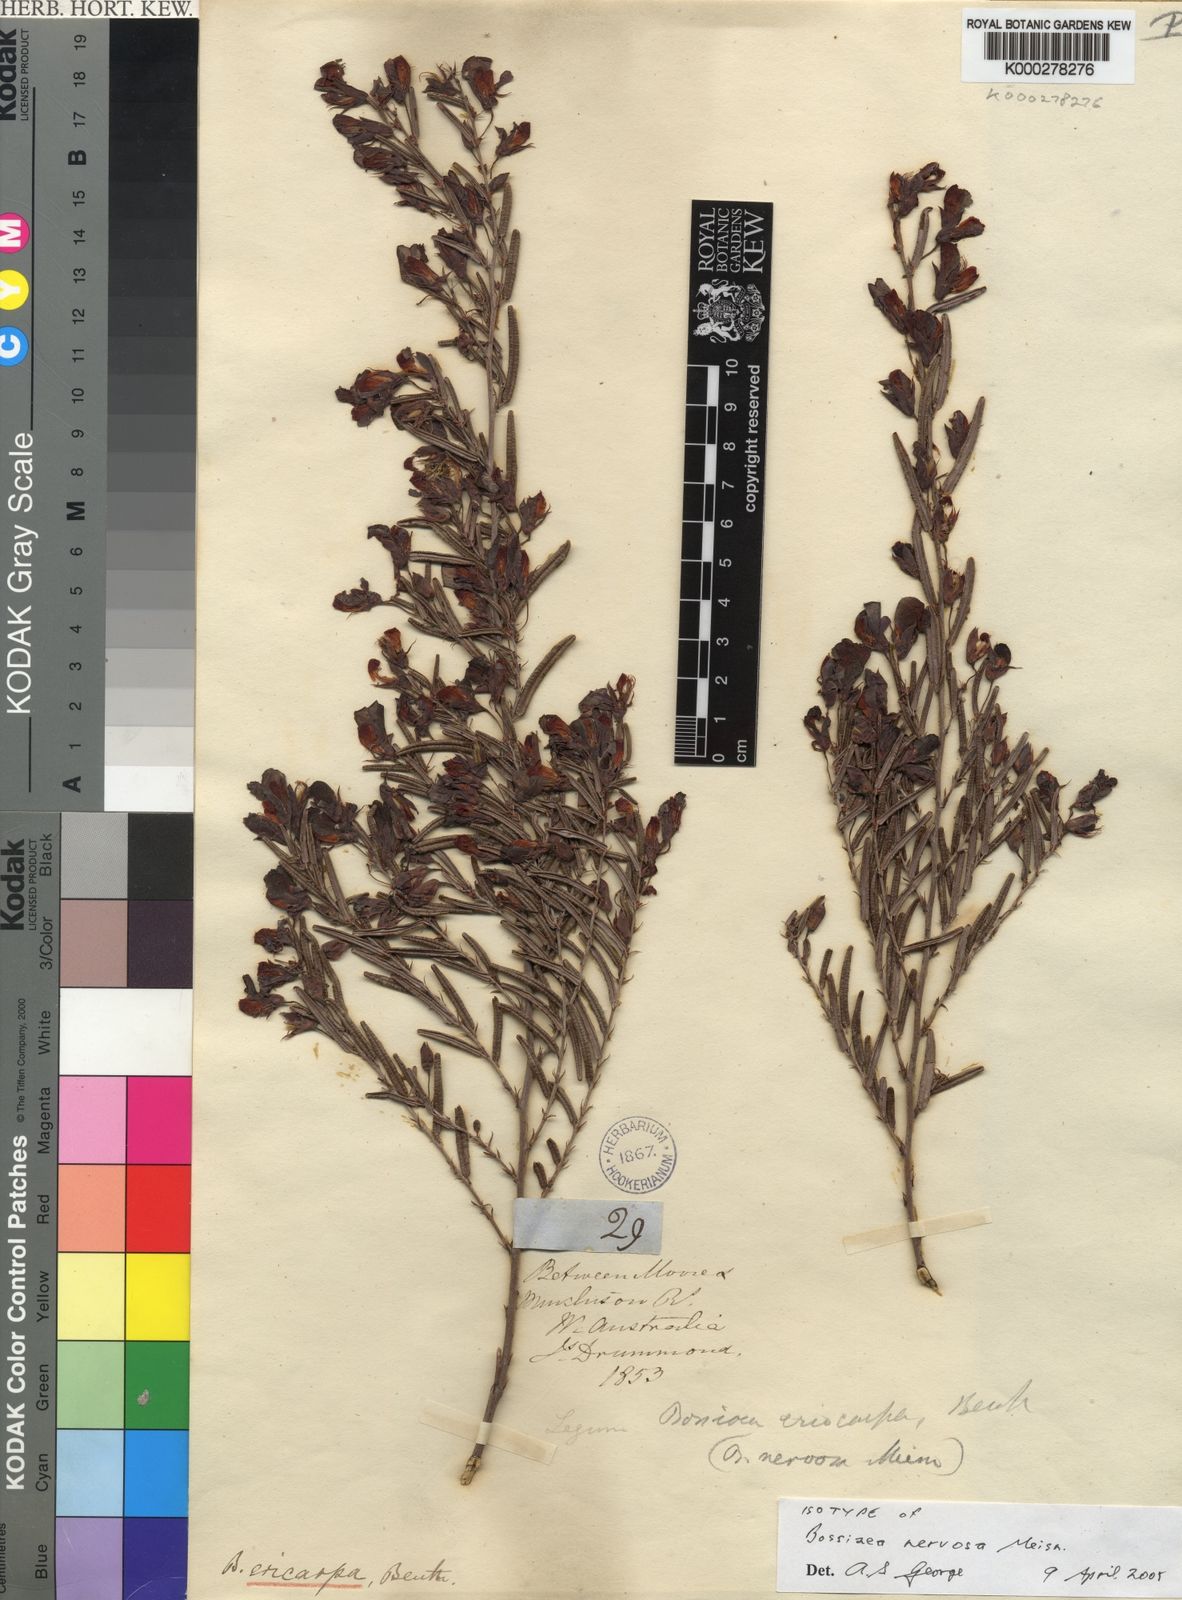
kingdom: Plantae
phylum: Tracheophyta
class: Magnoliopsida
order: Fabales
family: Fabaceae
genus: Bossiaea
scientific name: Bossiaea eriocarpa
